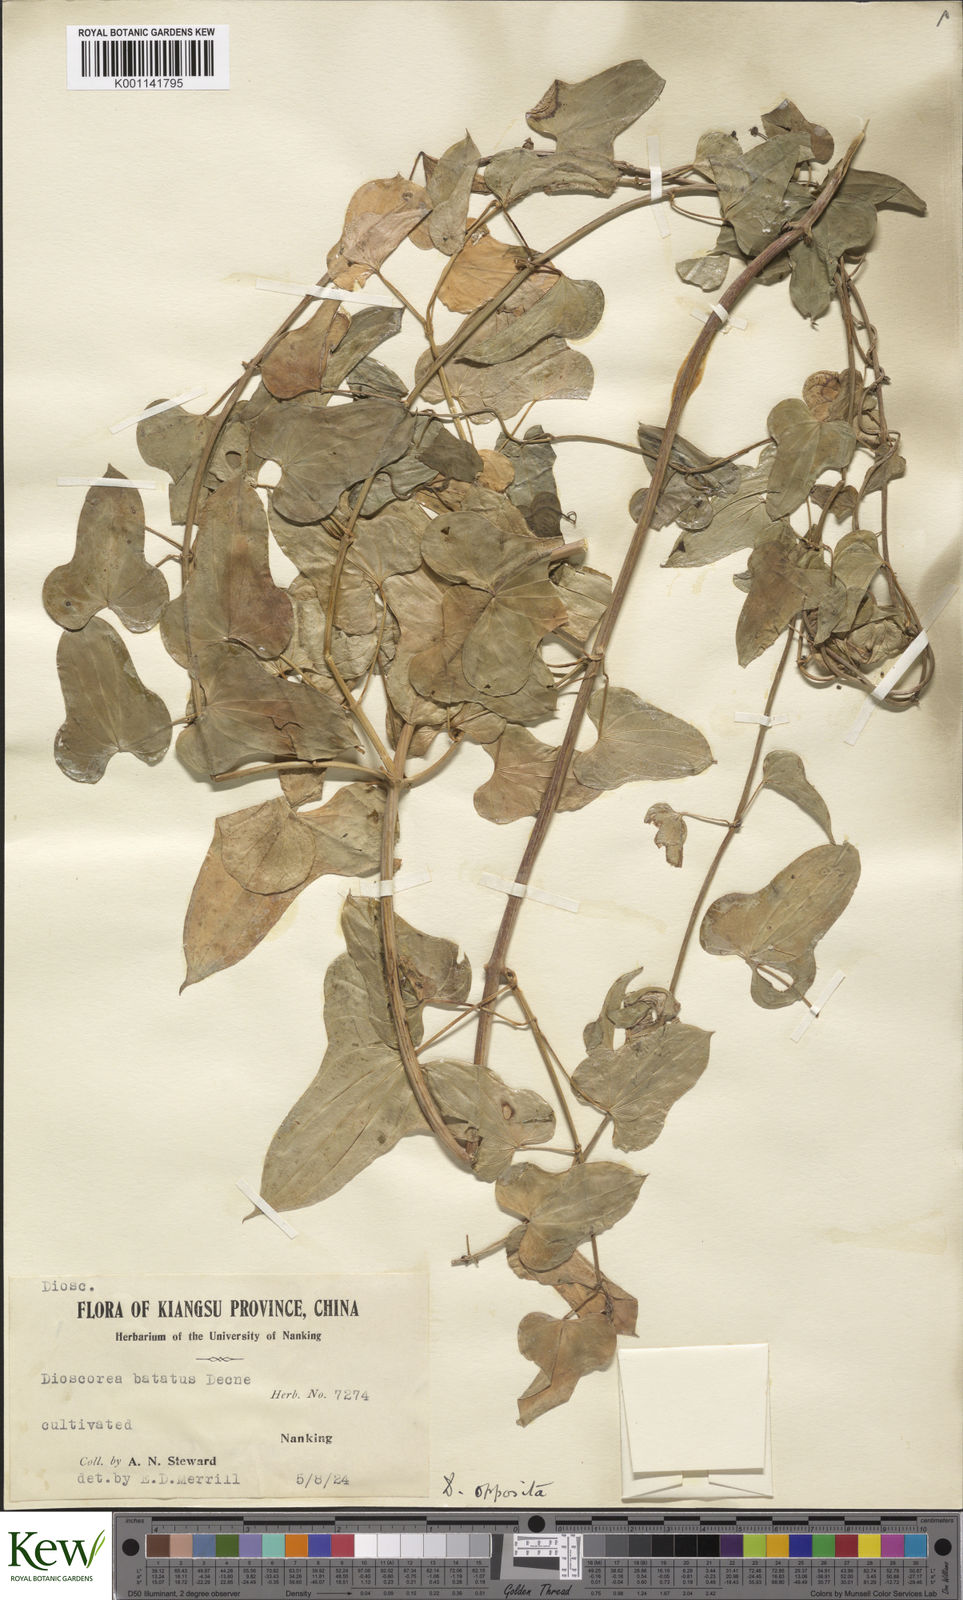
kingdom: Plantae
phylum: Tracheophyta
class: Liliopsida
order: Dioscoreales
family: Dioscoreaceae
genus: Dioscorea
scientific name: Dioscorea oppositifolia
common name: Chinese yam
